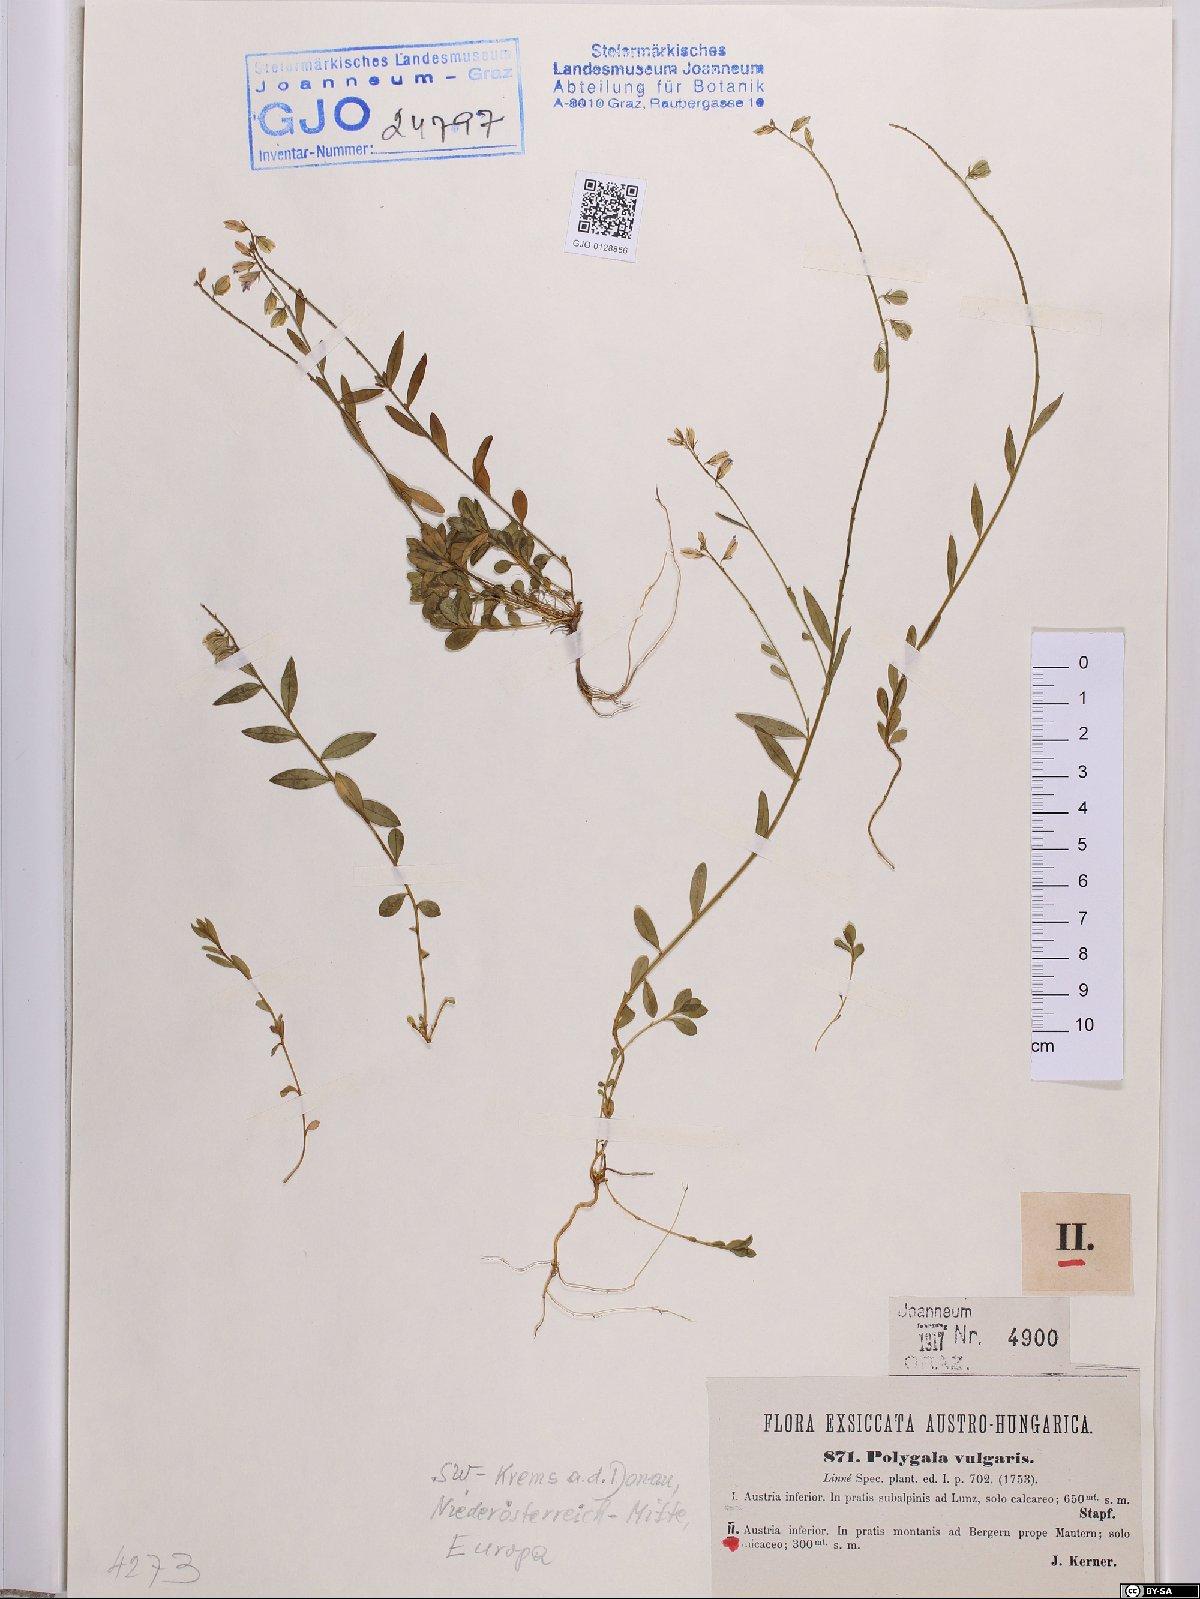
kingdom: Plantae
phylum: Tracheophyta
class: Magnoliopsida
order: Fabales
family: Polygalaceae
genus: Polygala
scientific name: Polygala vulgaris
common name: Common milkwort
